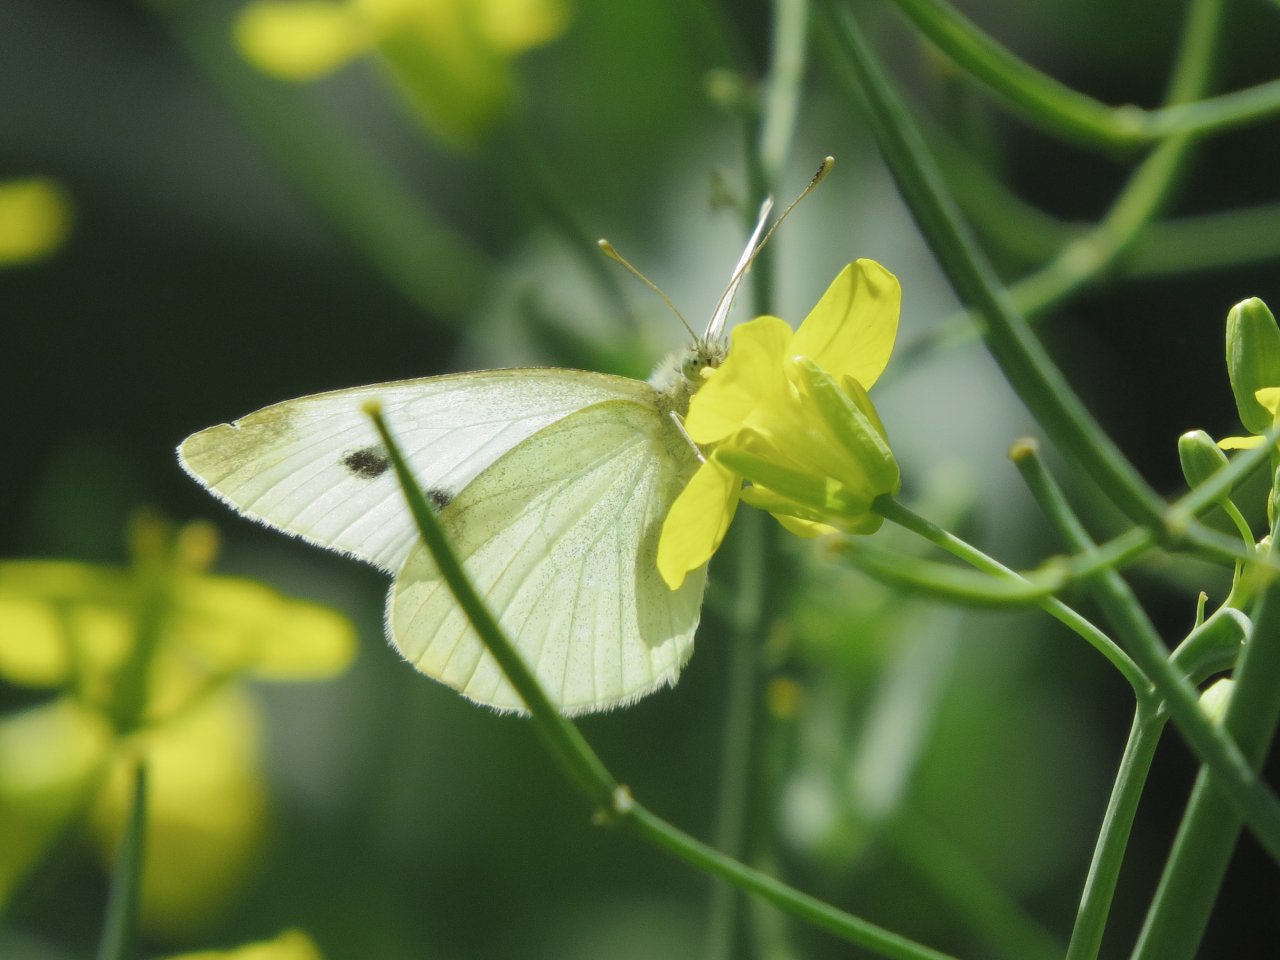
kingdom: Animalia
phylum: Arthropoda
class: Insecta
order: Lepidoptera
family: Pieridae
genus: Pieris
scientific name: Pieris rapae
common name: Cabbage White
